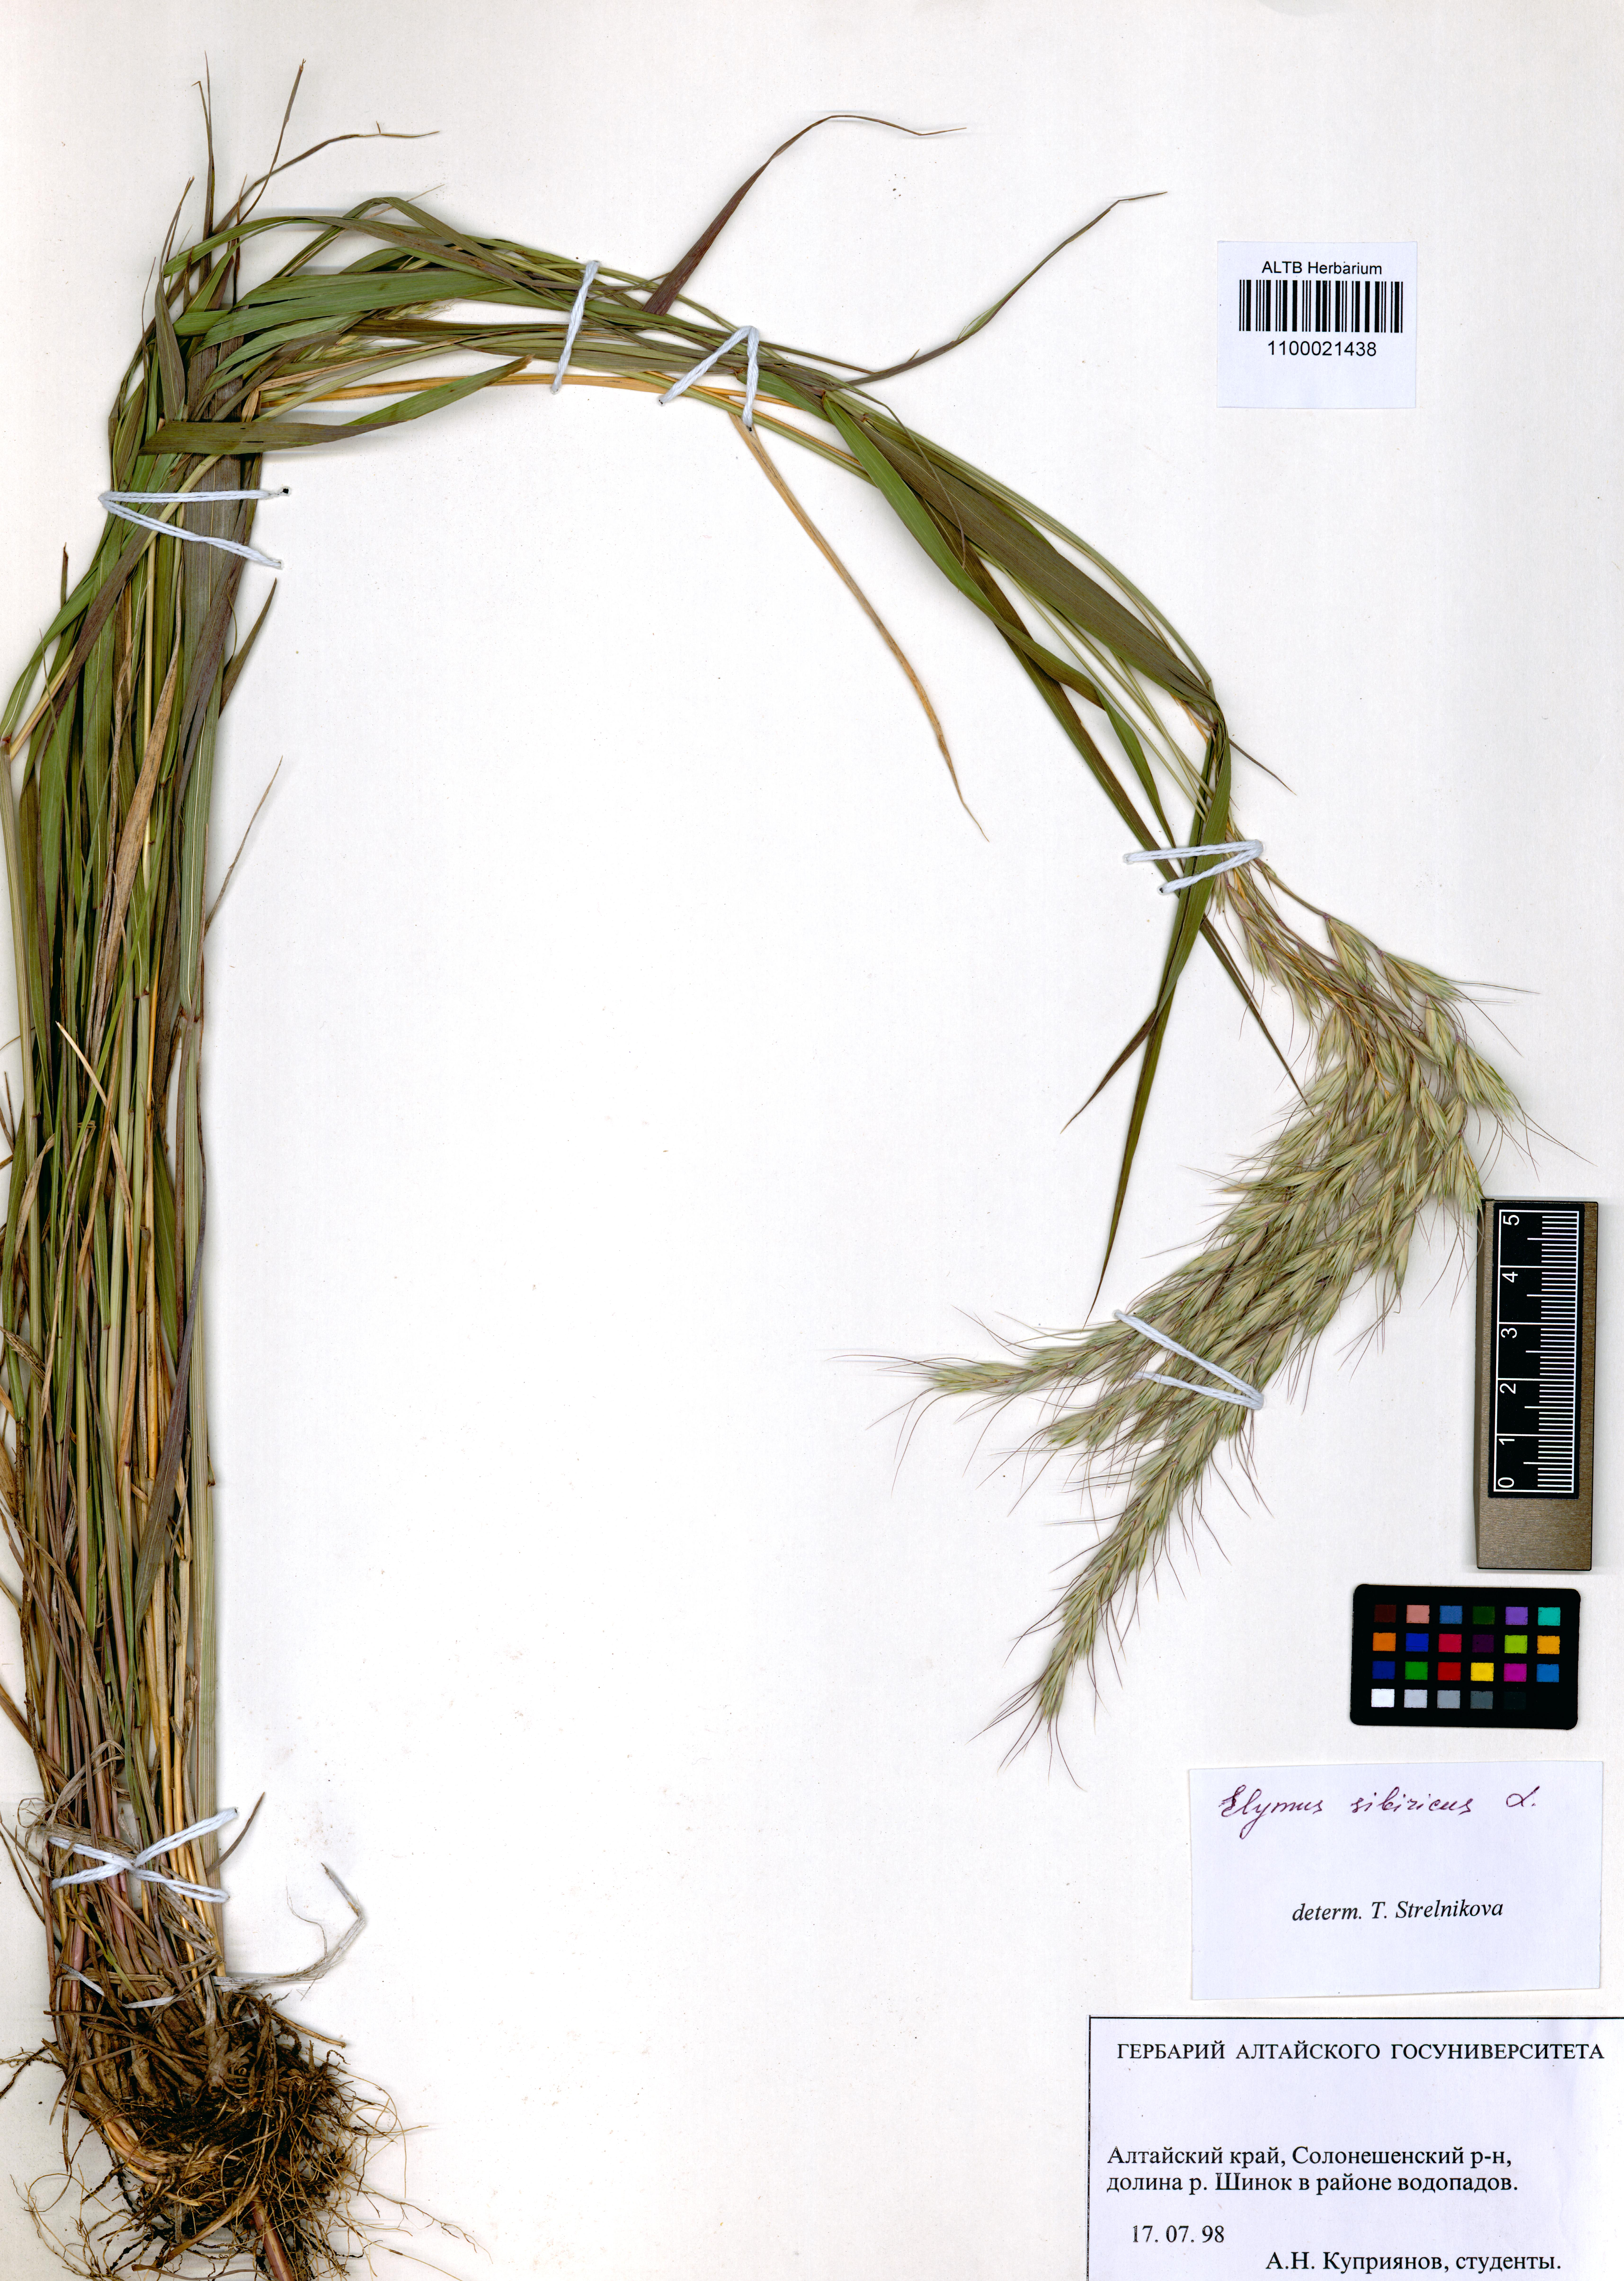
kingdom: Plantae
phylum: Tracheophyta
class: Liliopsida
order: Poales
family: Poaceae
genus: Elymus
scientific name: Elymus sibiricus
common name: Siberian wildrye
